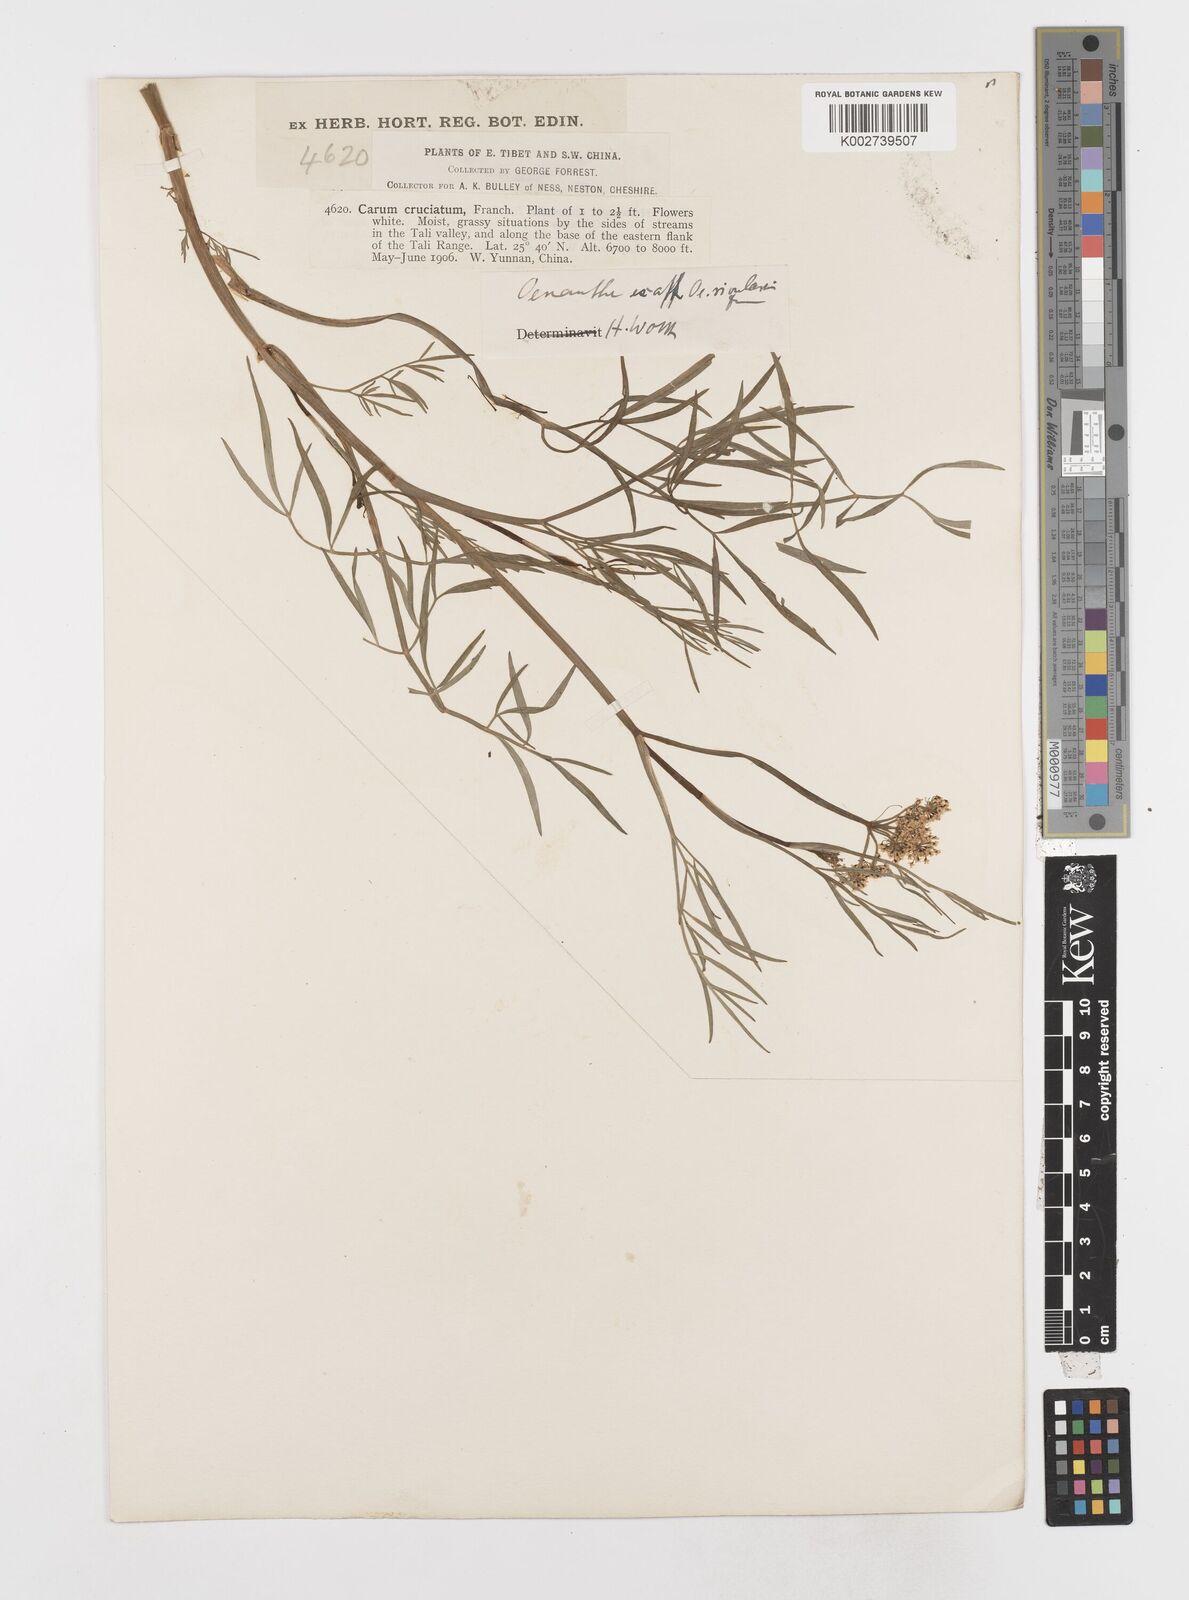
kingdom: Plantae
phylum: Tracheophyta
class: Magnoliopsida
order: Apiales
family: Apiaceae
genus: Oenanthe
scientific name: Oenanthe linearis
